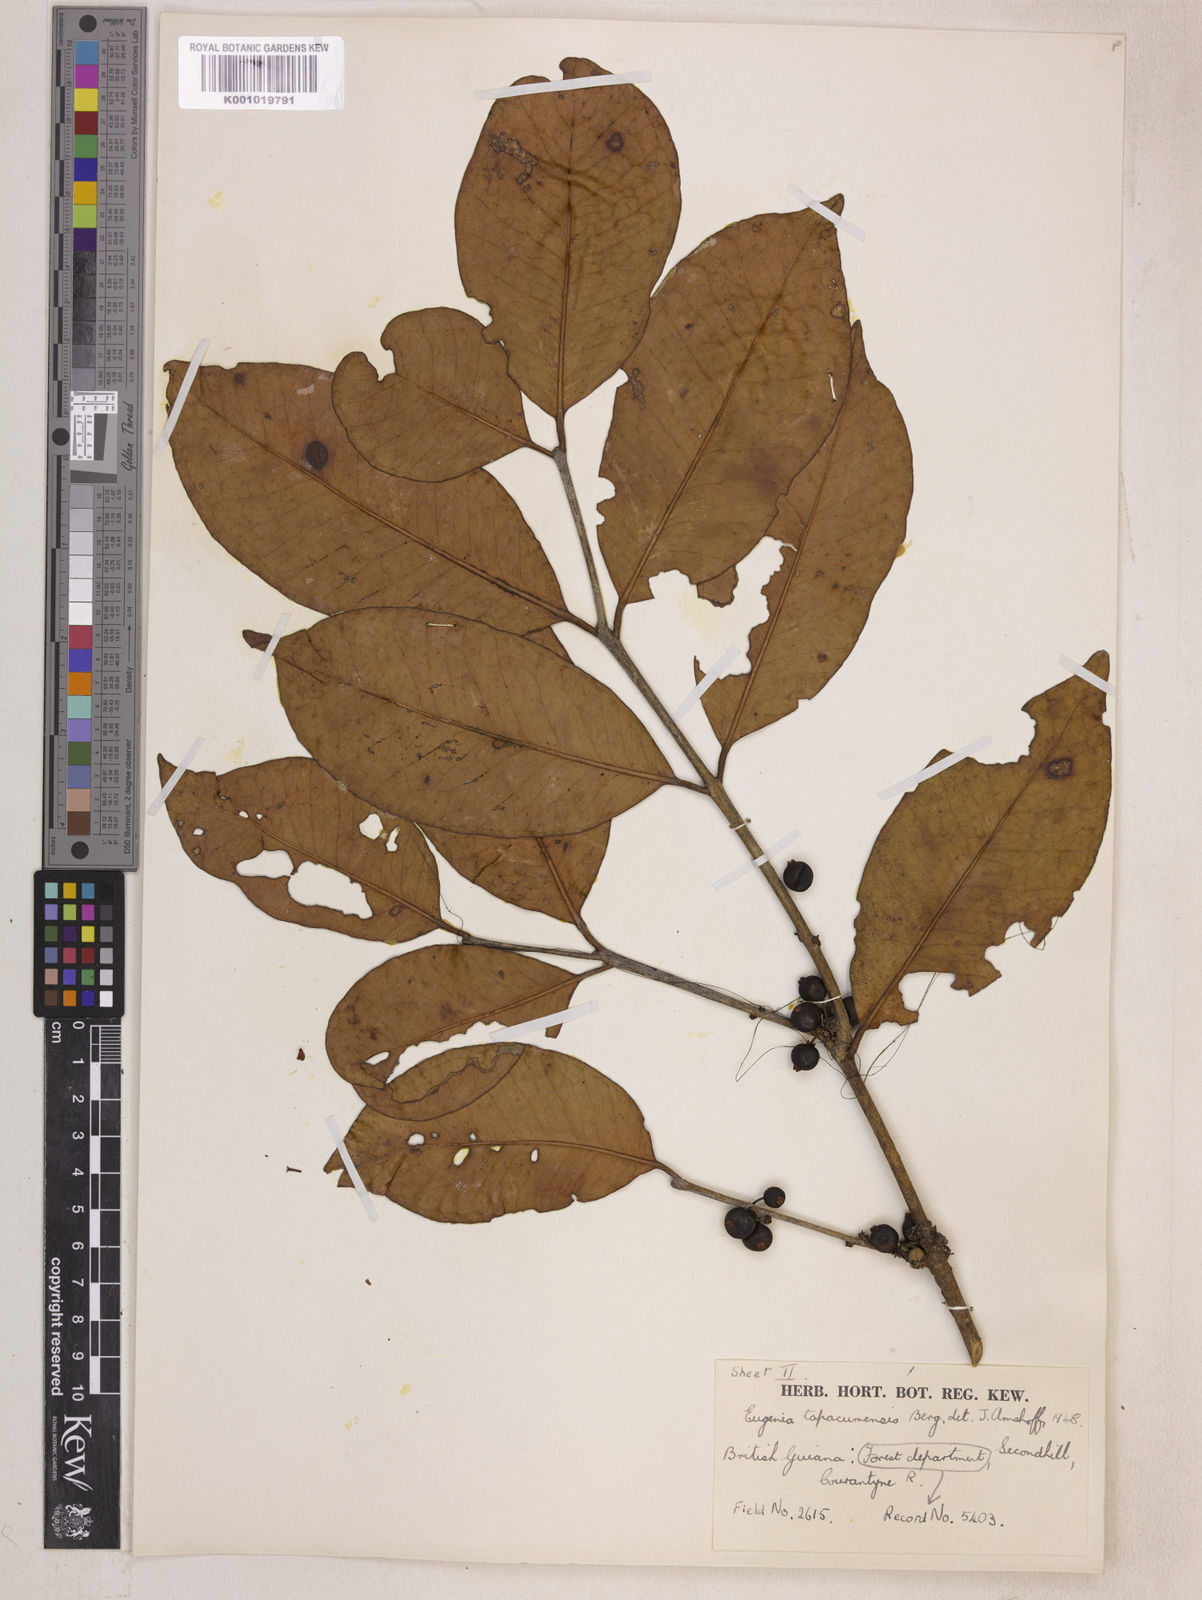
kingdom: Plantae
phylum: Tracheophyta
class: Magnoliopsida
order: Myrtales
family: Myrtaceae
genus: Eugenia
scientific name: Eugenia stictopetala
